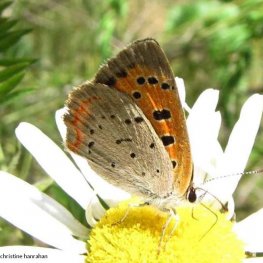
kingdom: Animalia
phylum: Arthropoda
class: Insecta
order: Lepidoptera
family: Lycaenidae
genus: Lycaena
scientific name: Lycaena phlaeas
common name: American Copper
